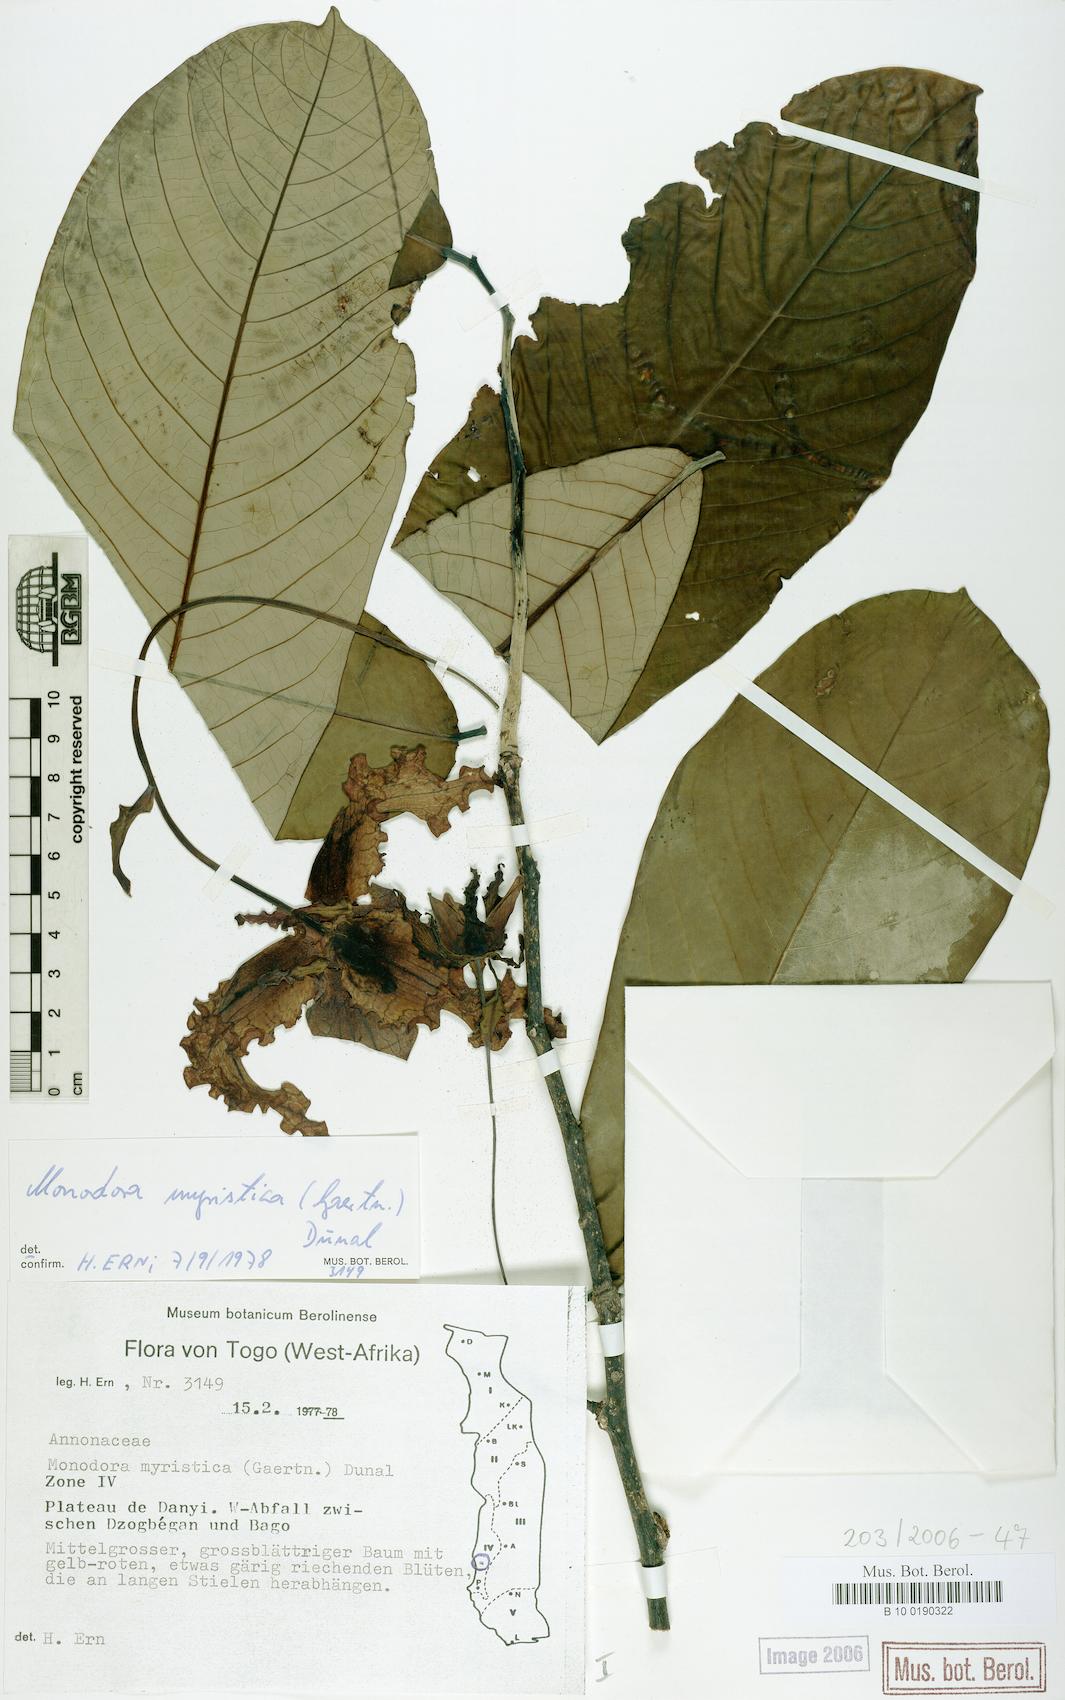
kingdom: Plantae
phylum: Tracheophyta
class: Magnoliopsida
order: Magnoliales
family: Annonaceae
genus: Monodora
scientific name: Monodora myristica
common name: African nutmeg
